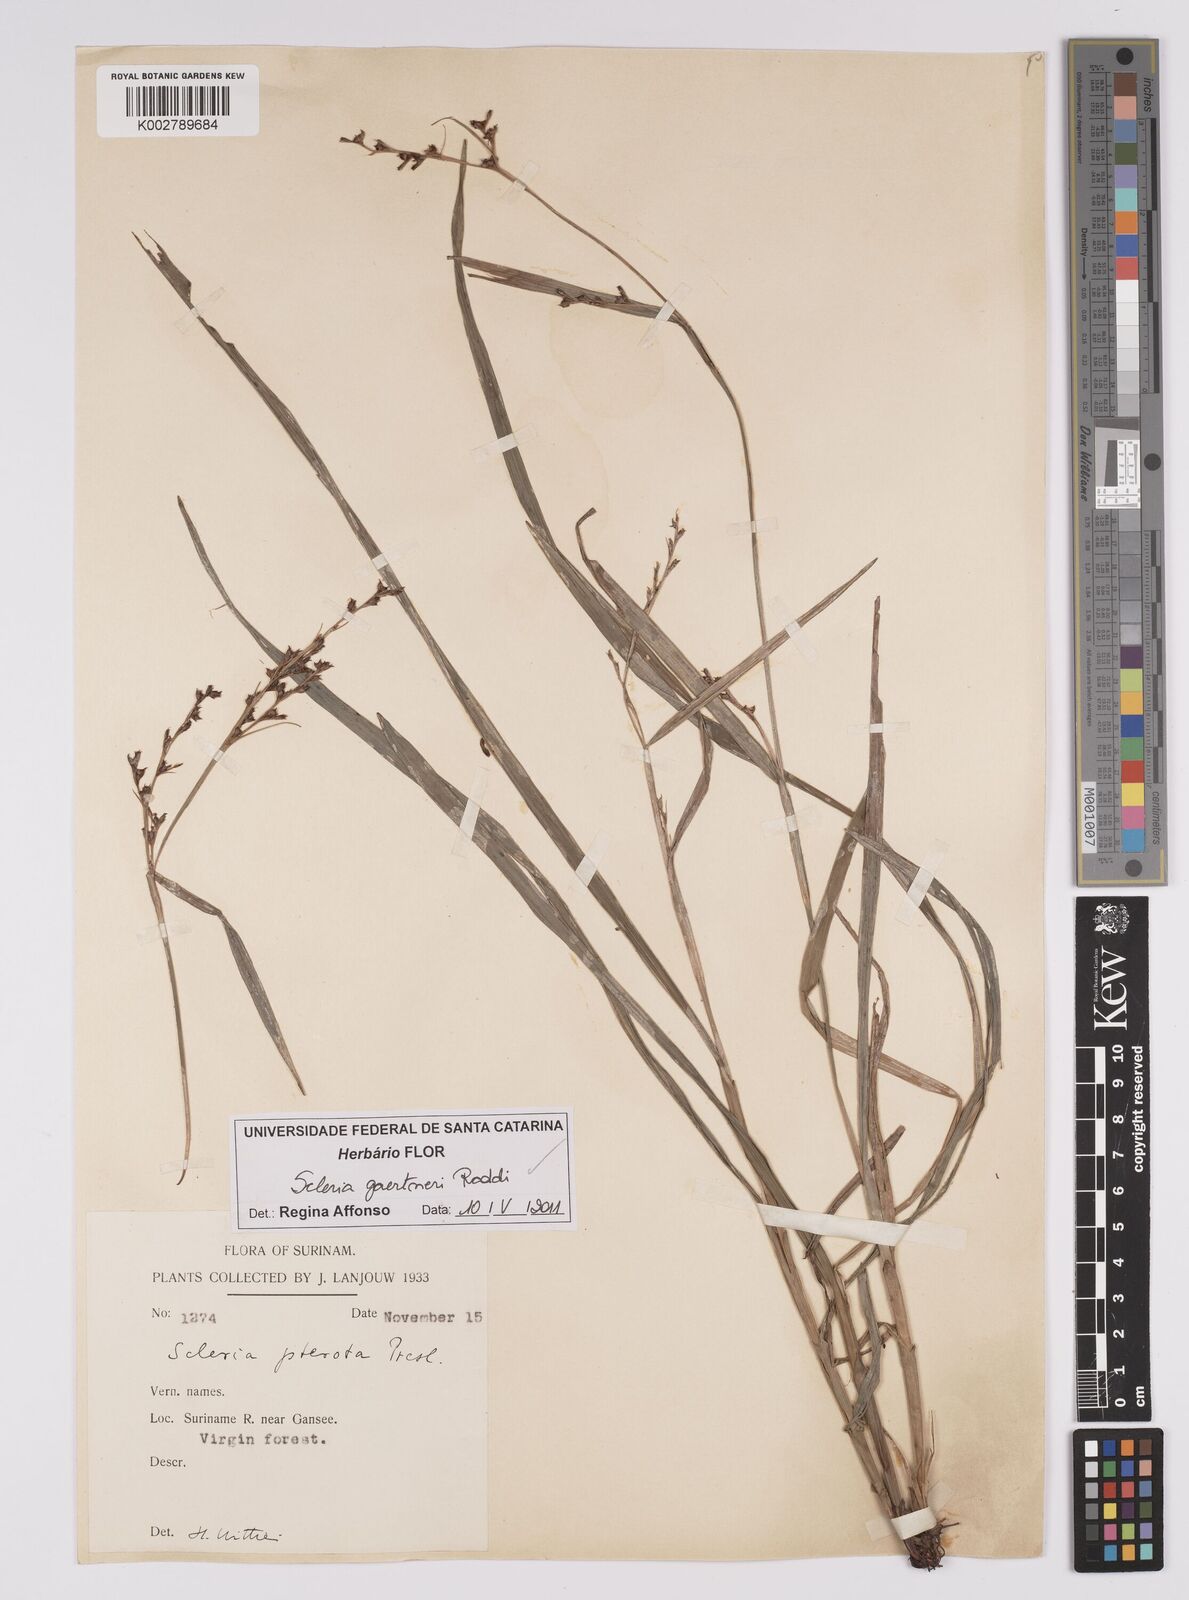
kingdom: Plantae
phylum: Tracheophyta
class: Liliopsida
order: Poales
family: Cyperaceae
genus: Scleria
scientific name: Scleria gaertneri
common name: Cortadera blanca
